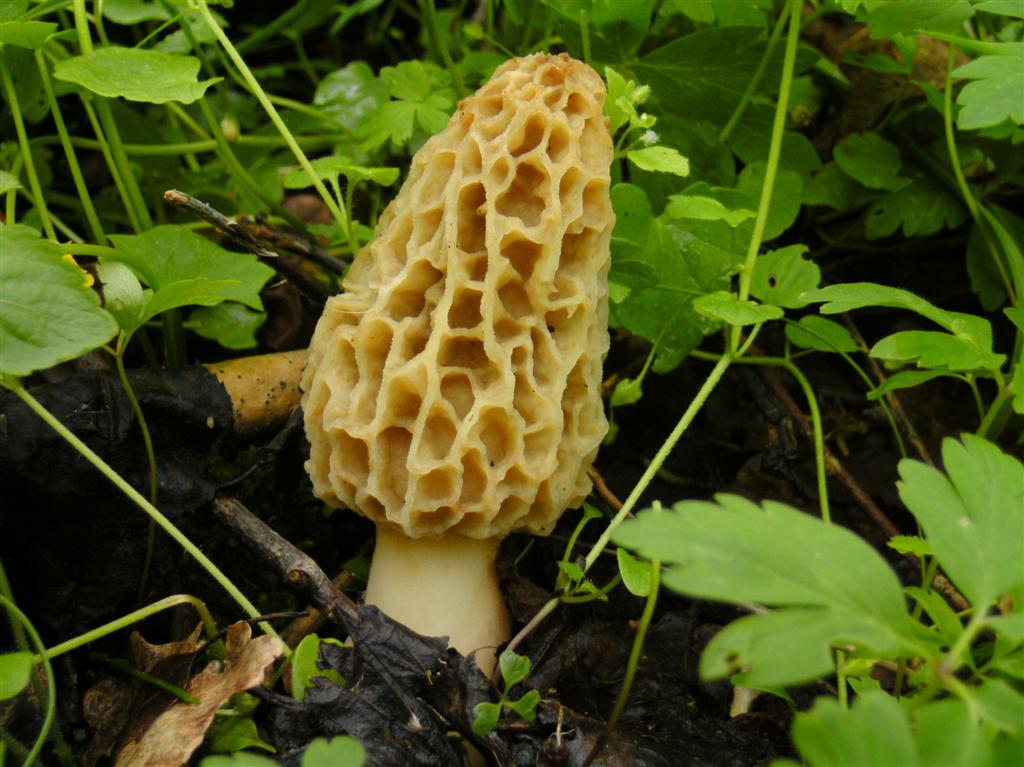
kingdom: Fungi
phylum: Ascomycota
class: Pezizomycetes
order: Pezizales
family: Morchellaceae
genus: Morchella
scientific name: Morchella esculenta
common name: spiselig morkel
